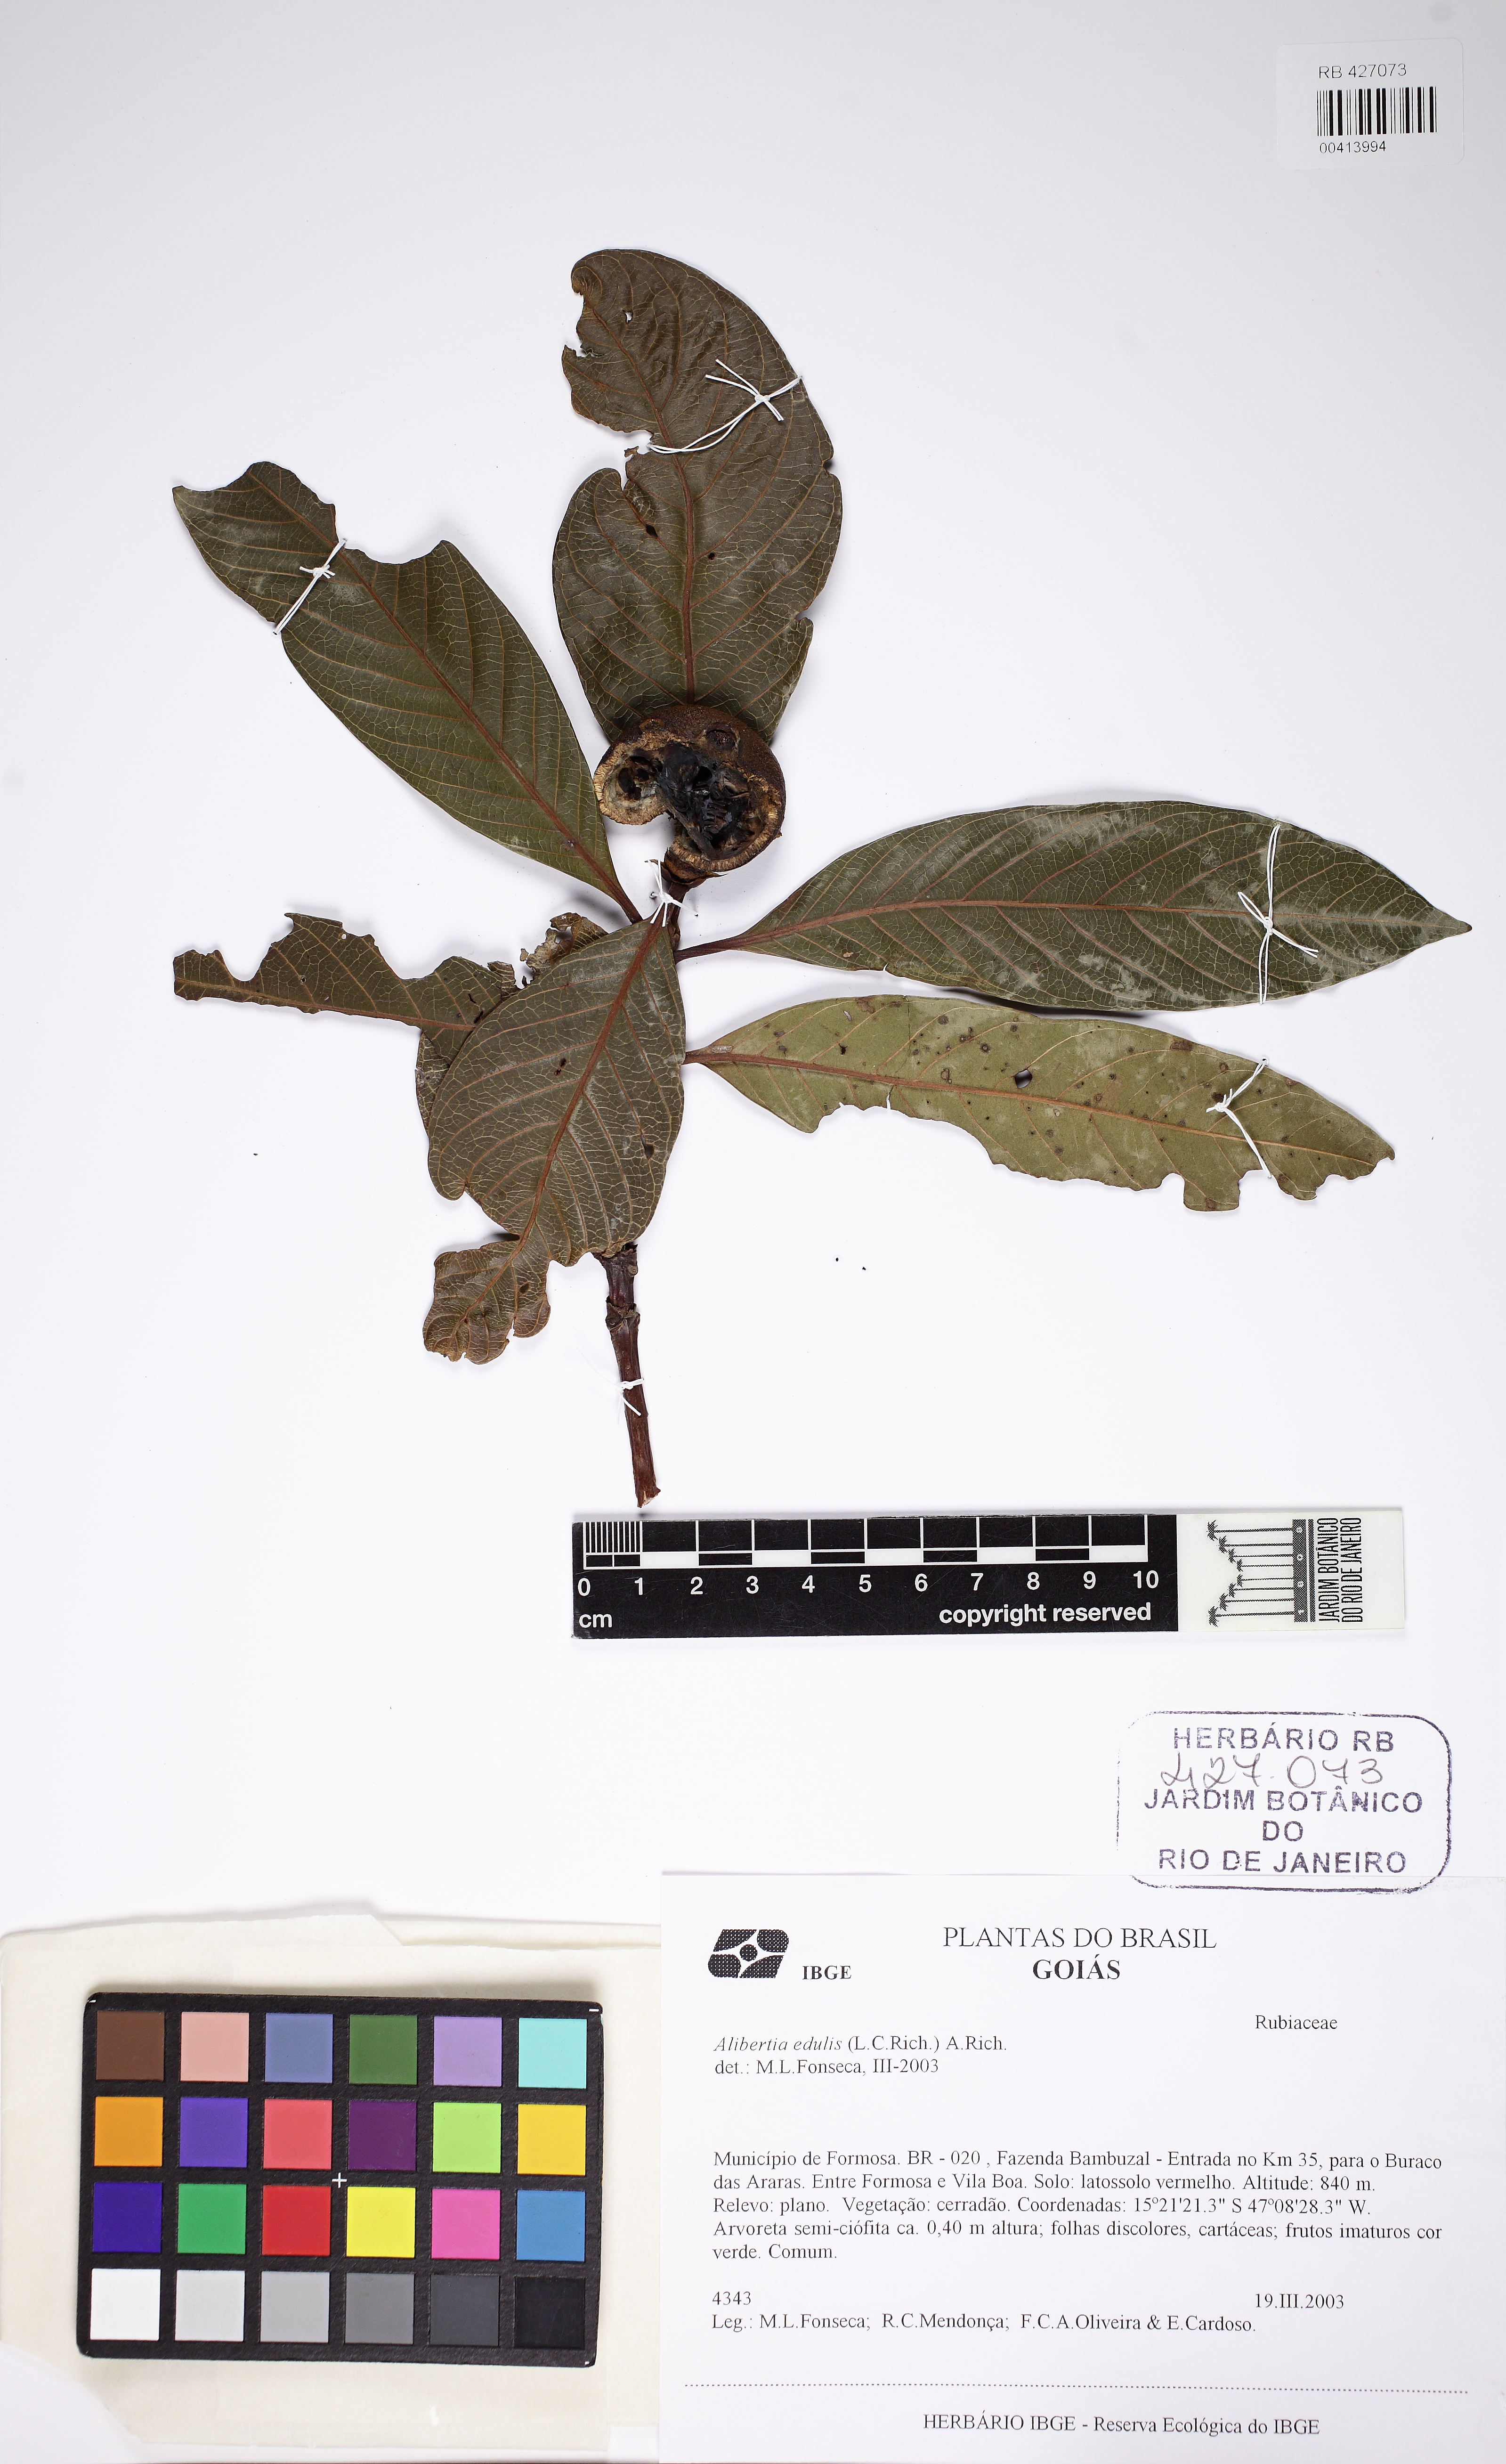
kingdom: Plantae
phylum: Tracheophyta
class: Magnoliopsida
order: Gentianales
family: Rubiaceae
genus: Alibertia
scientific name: Alibertia edulis
